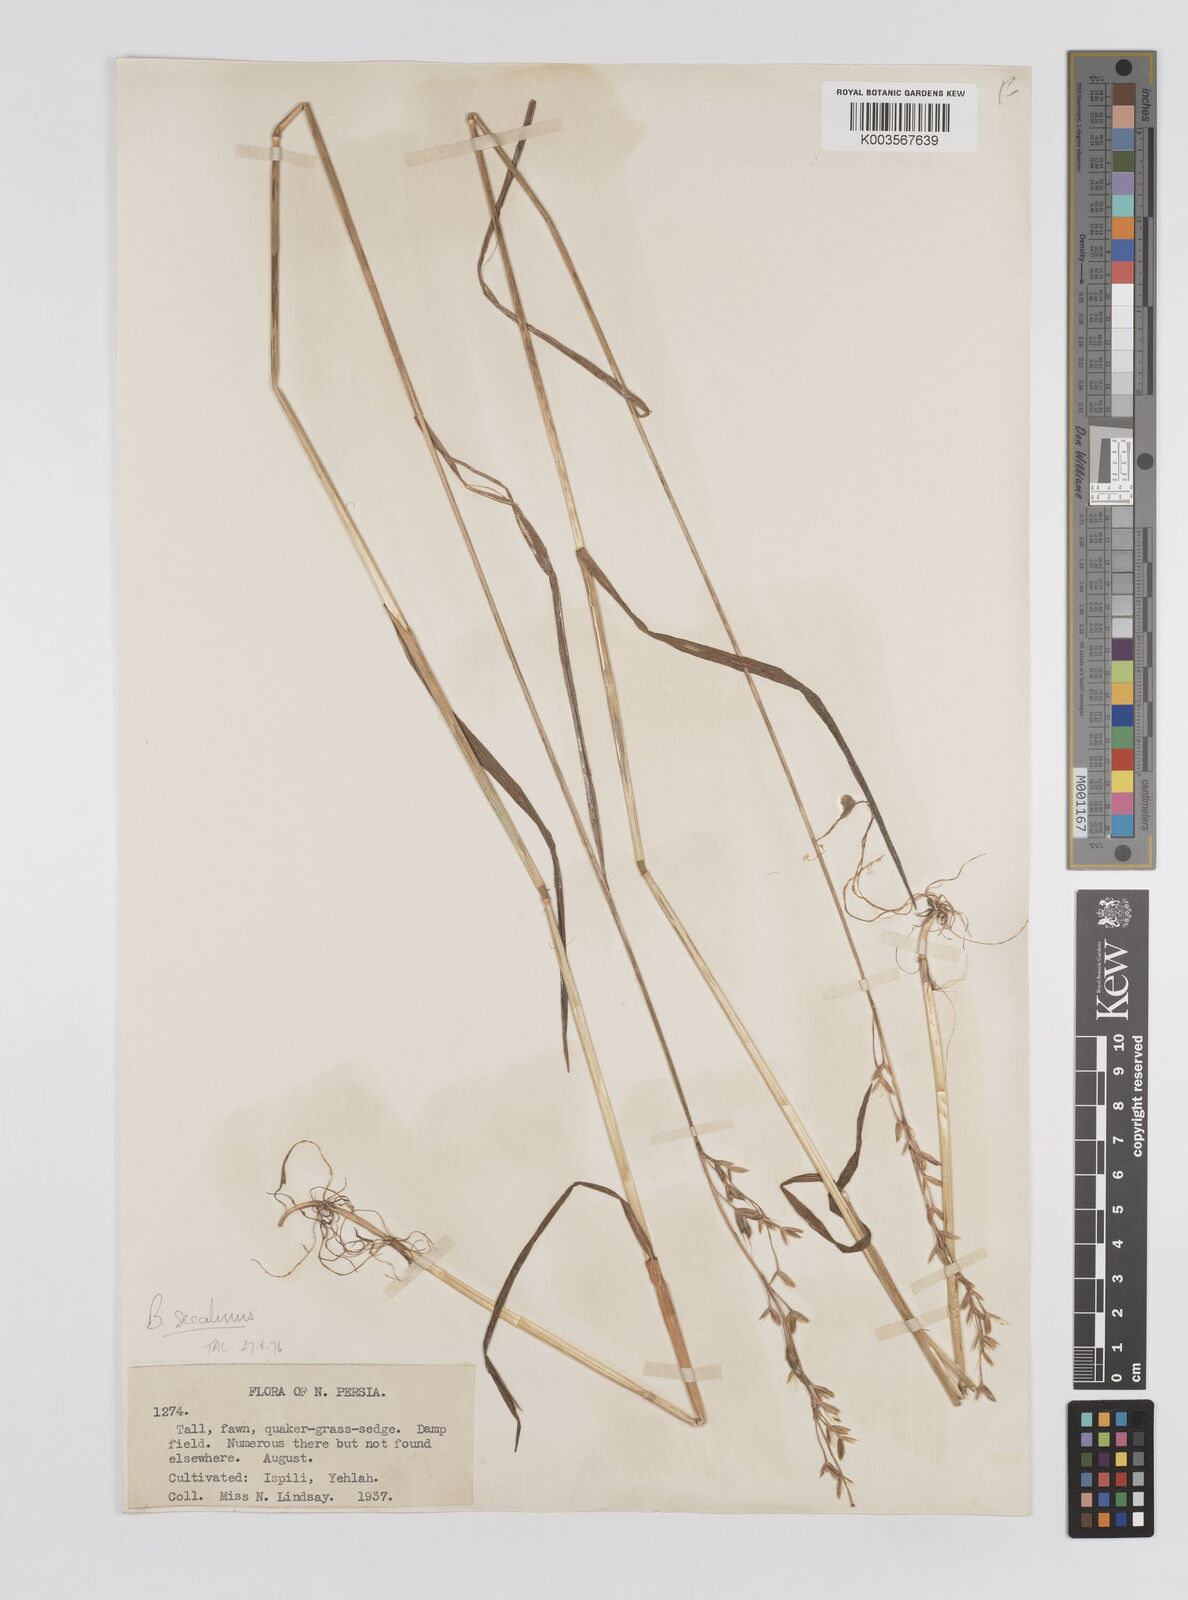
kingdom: Plantae
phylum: Tracheophyta
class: Liliopsida
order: Poales
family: Poaceae
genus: Bromus
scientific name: Bromus secalinus
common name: Rye brome
